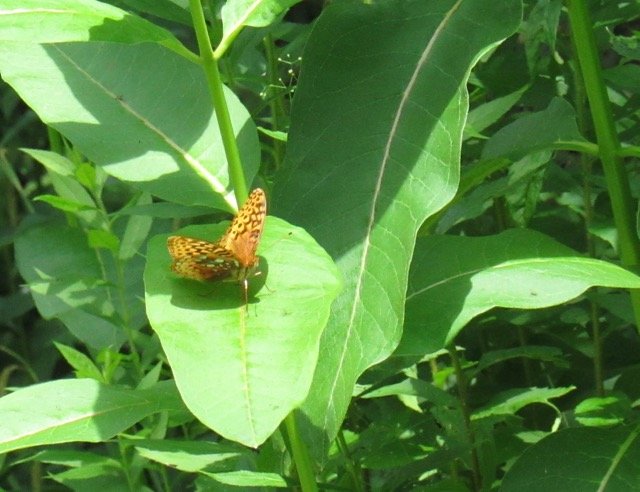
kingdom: Animalia
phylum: Arthropoda
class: Insecta
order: Lepidoptera
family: Nymphalidae
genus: Speyeria
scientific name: Speyeria cybele
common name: Great Spangled Fritillary
